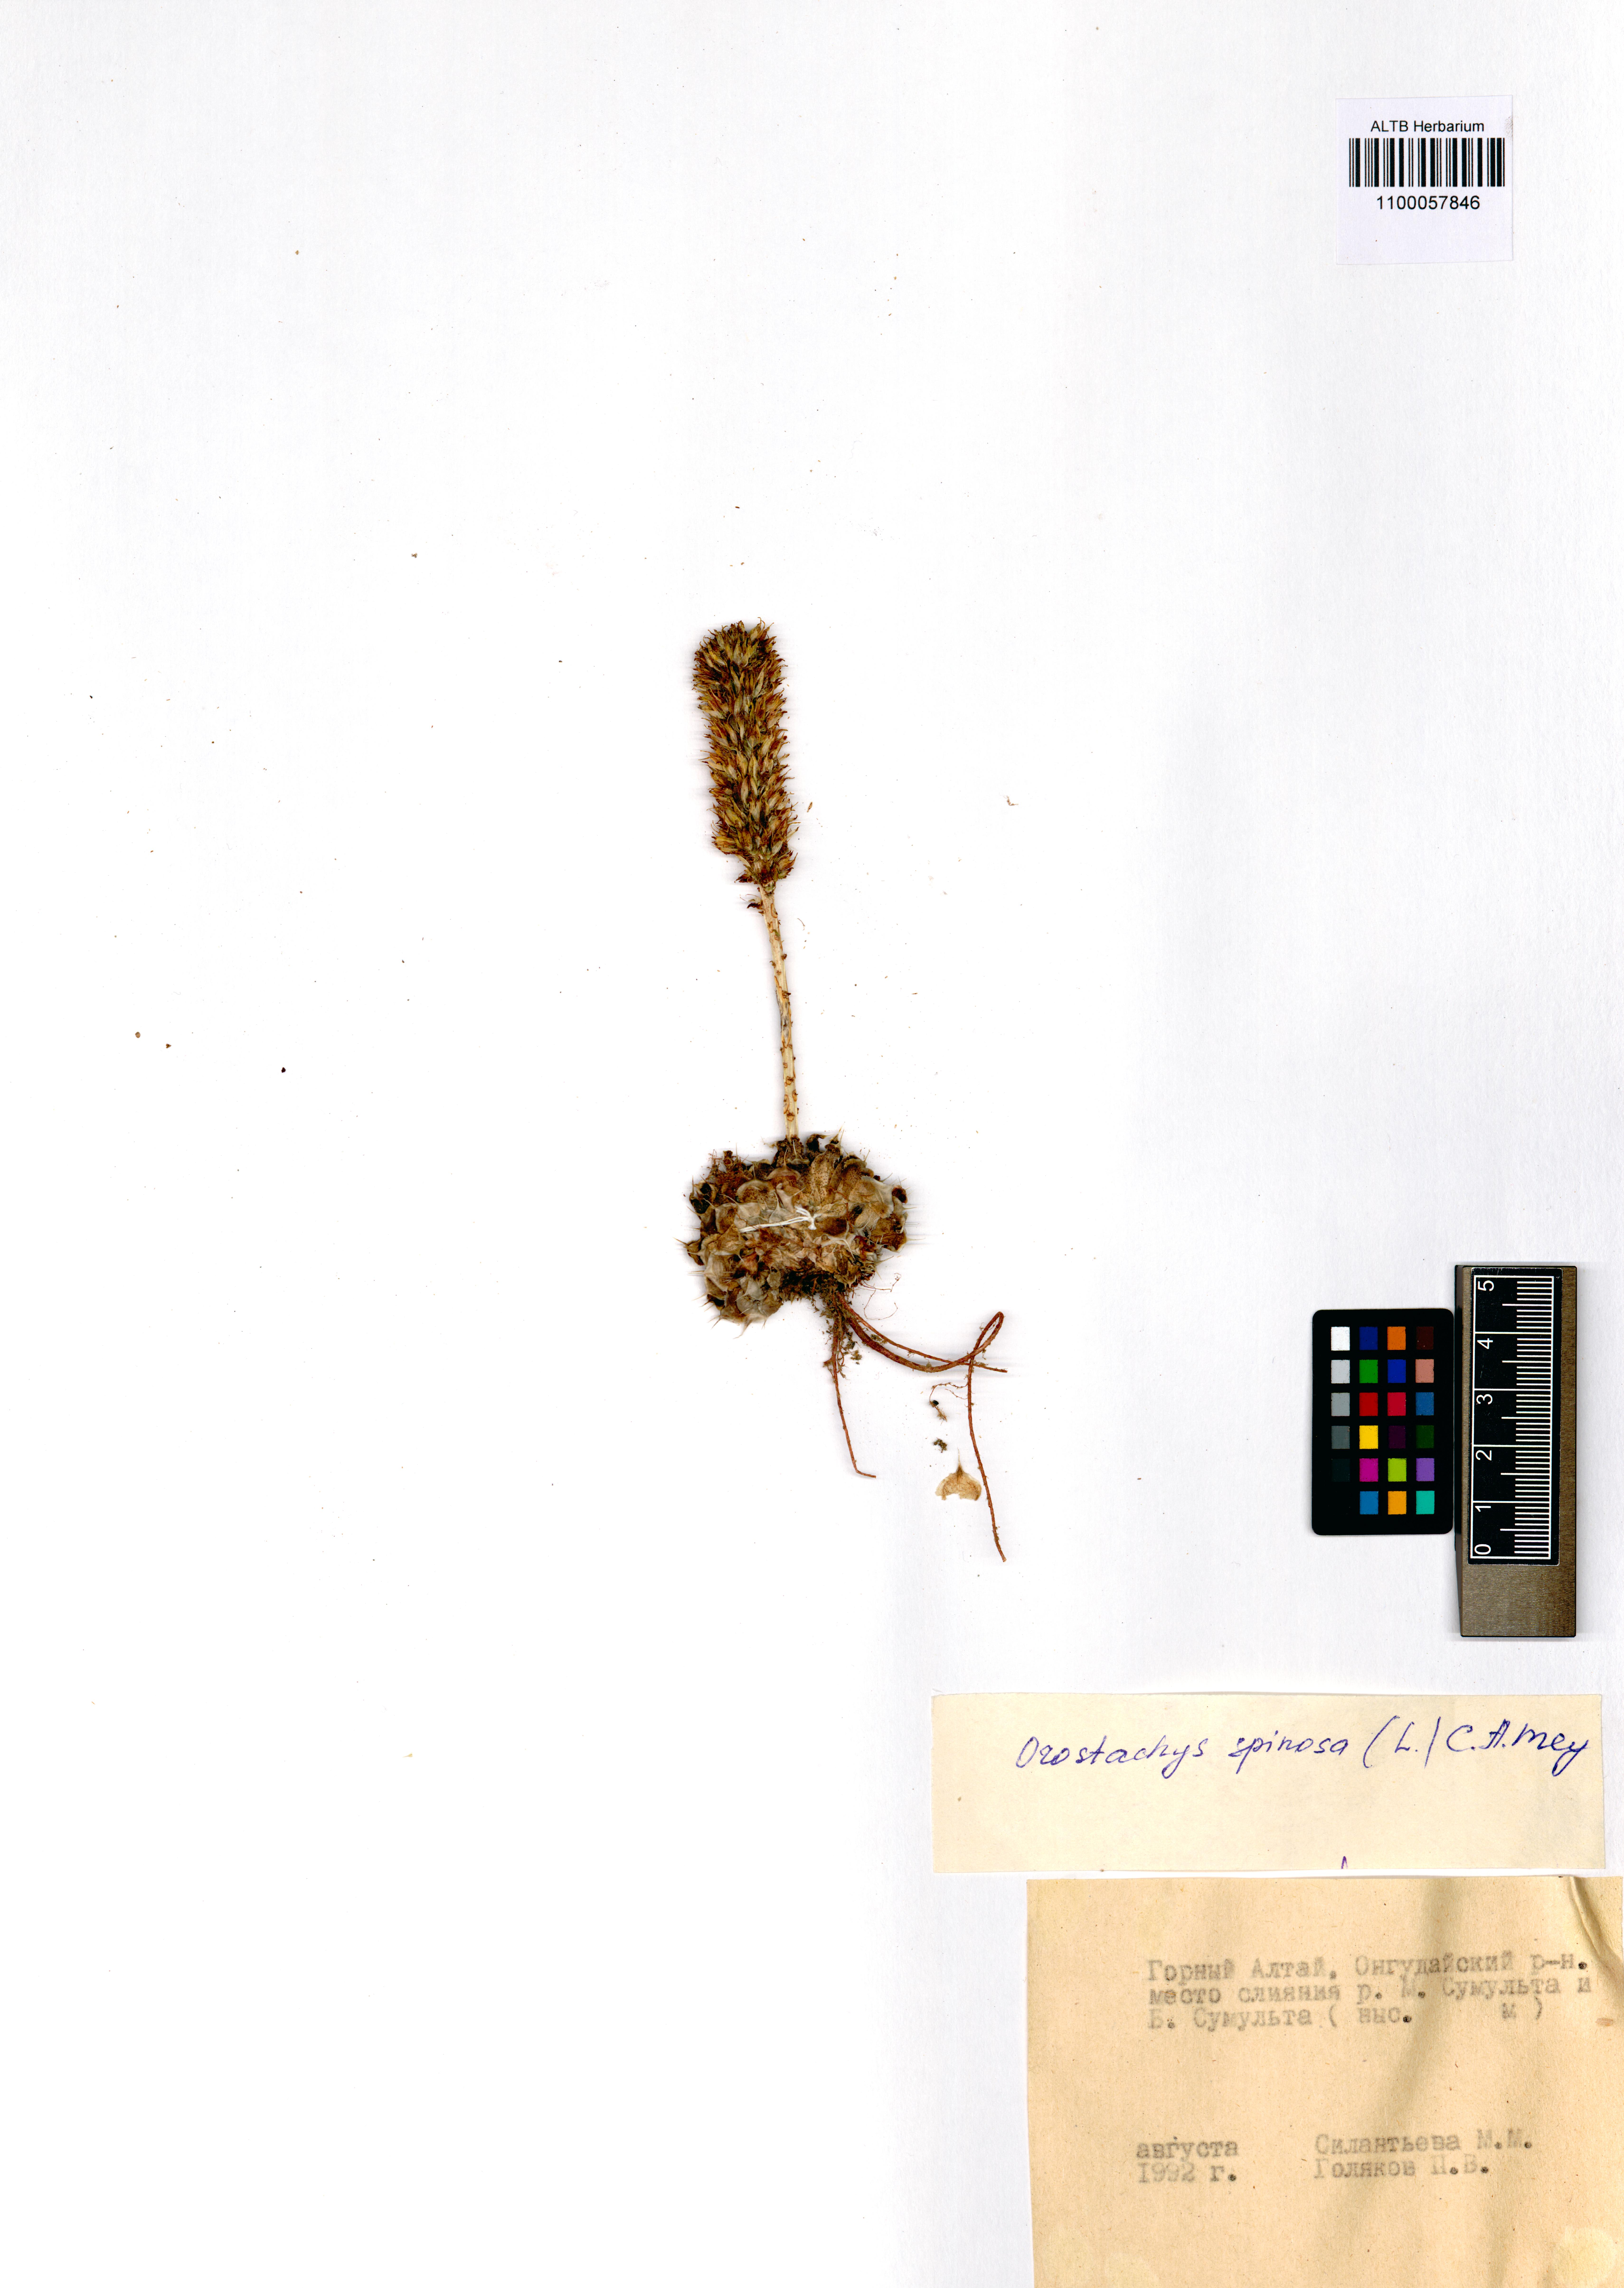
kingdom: Plantae
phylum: Tracheophyta
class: Magnoliopsida
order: Saxifragales
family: Crassulaceae
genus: Orostachys
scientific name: Orostachys spinosa
